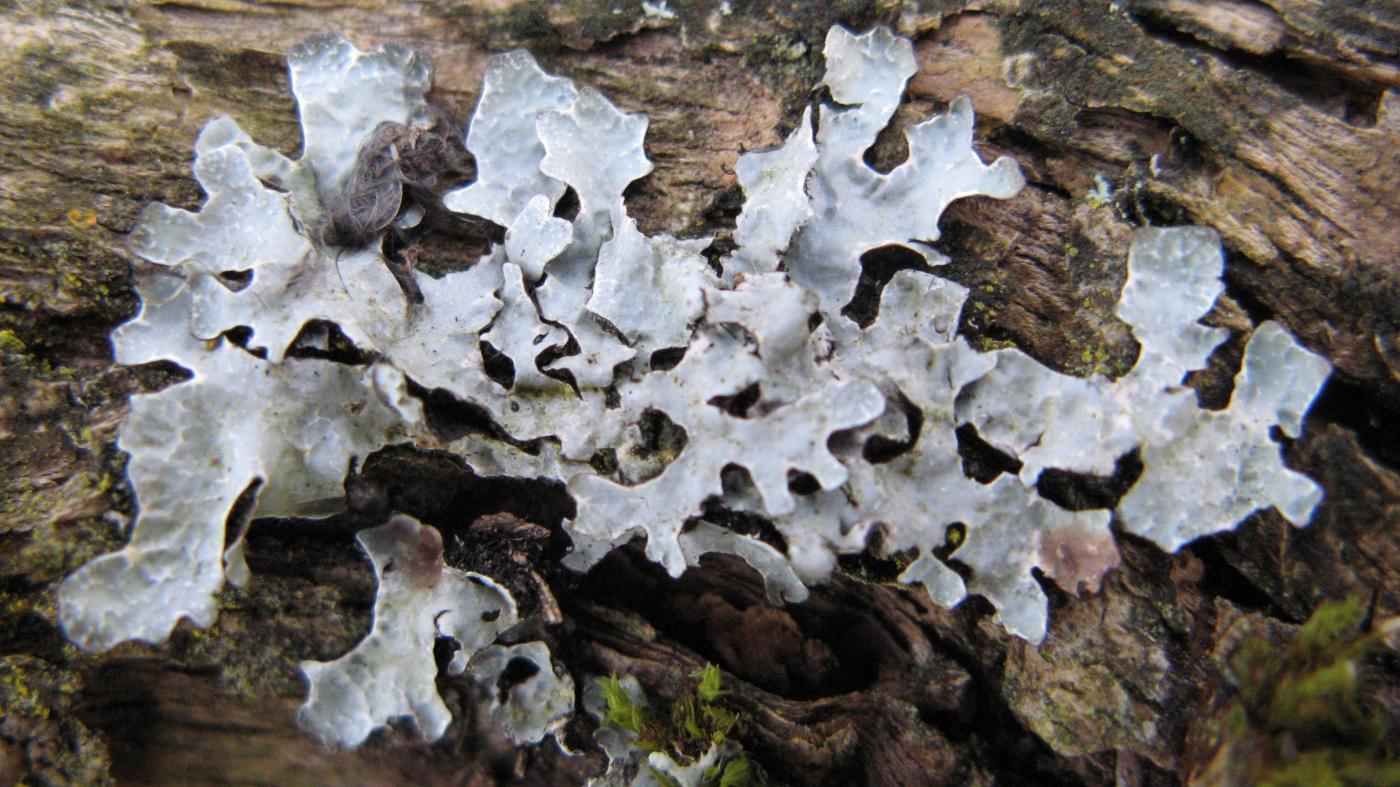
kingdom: Fungi
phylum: Ascomycota
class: Lecanoromycetes
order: Lecanorales
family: Parmeliaceae
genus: Parmelia
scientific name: Parmelia sulcata
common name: rynket skållav
